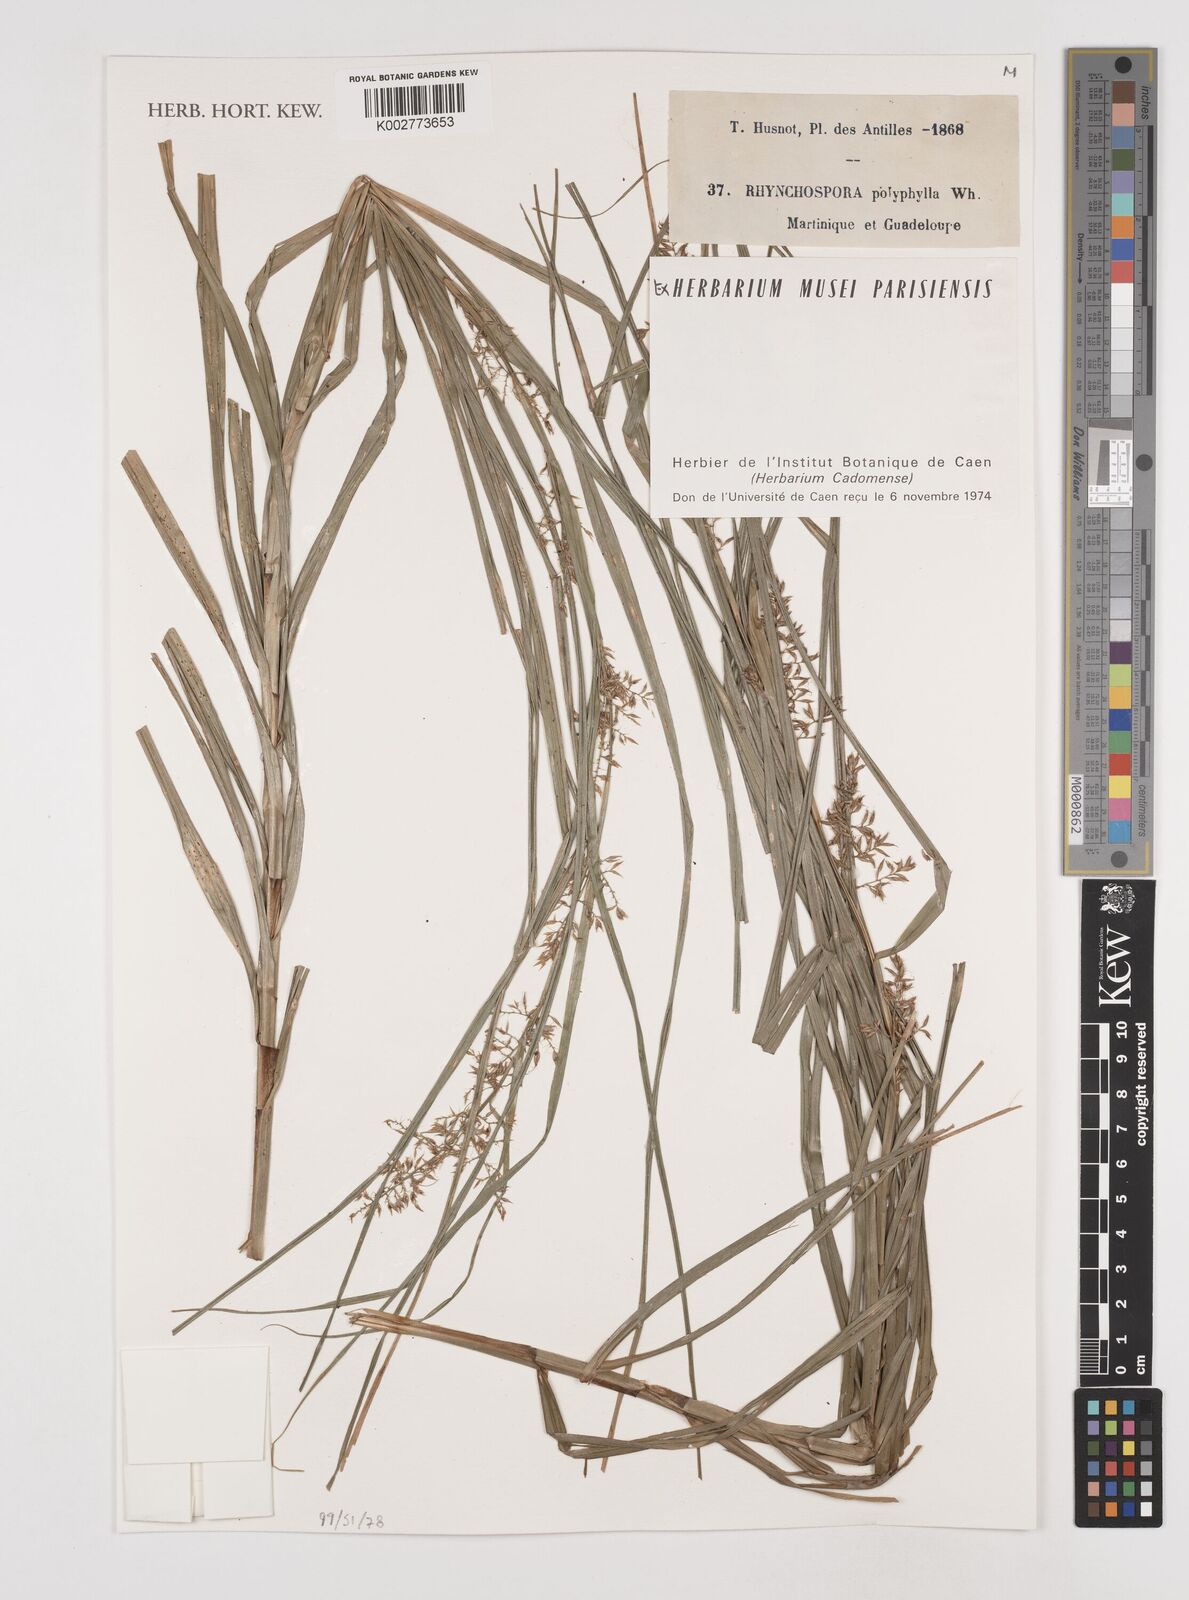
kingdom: Plantae
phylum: Tracheophyta
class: Liliopsida
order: Poales
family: Cyperaceae
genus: Rhynchospora
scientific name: Rhynchospora polyphylla
